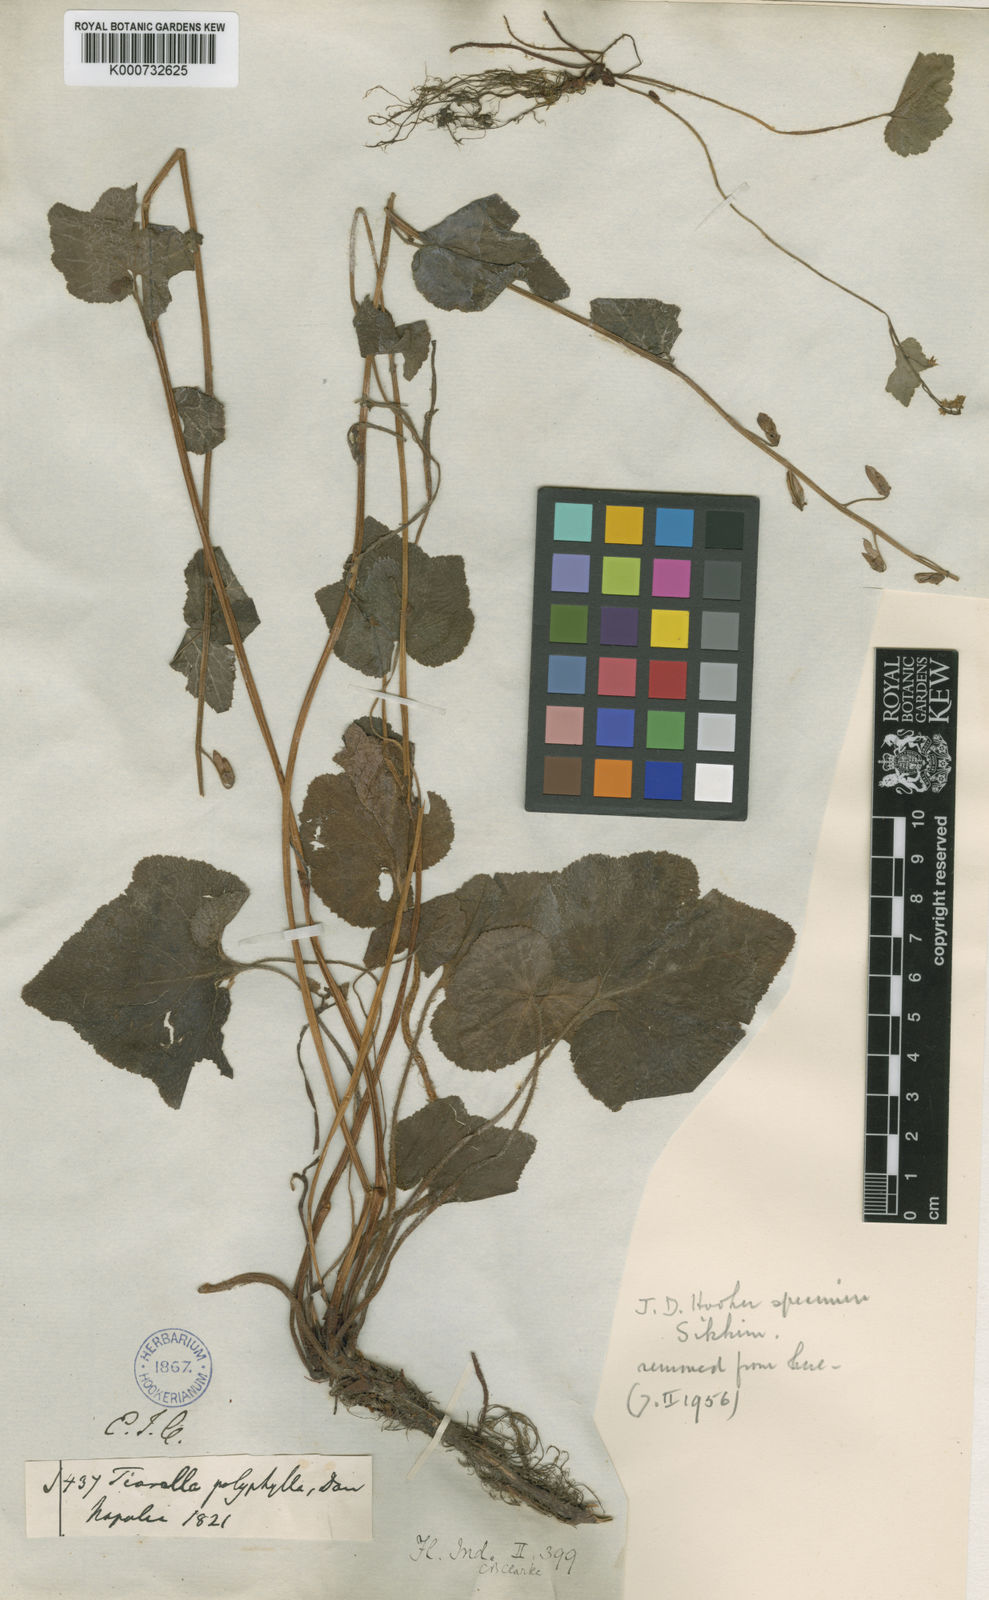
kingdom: Plantae
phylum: Tracheophyta
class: Magnoliopsida
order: Saxifragales
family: Saxifragaceae
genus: Tiarella
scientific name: Tiarella polyphylla
